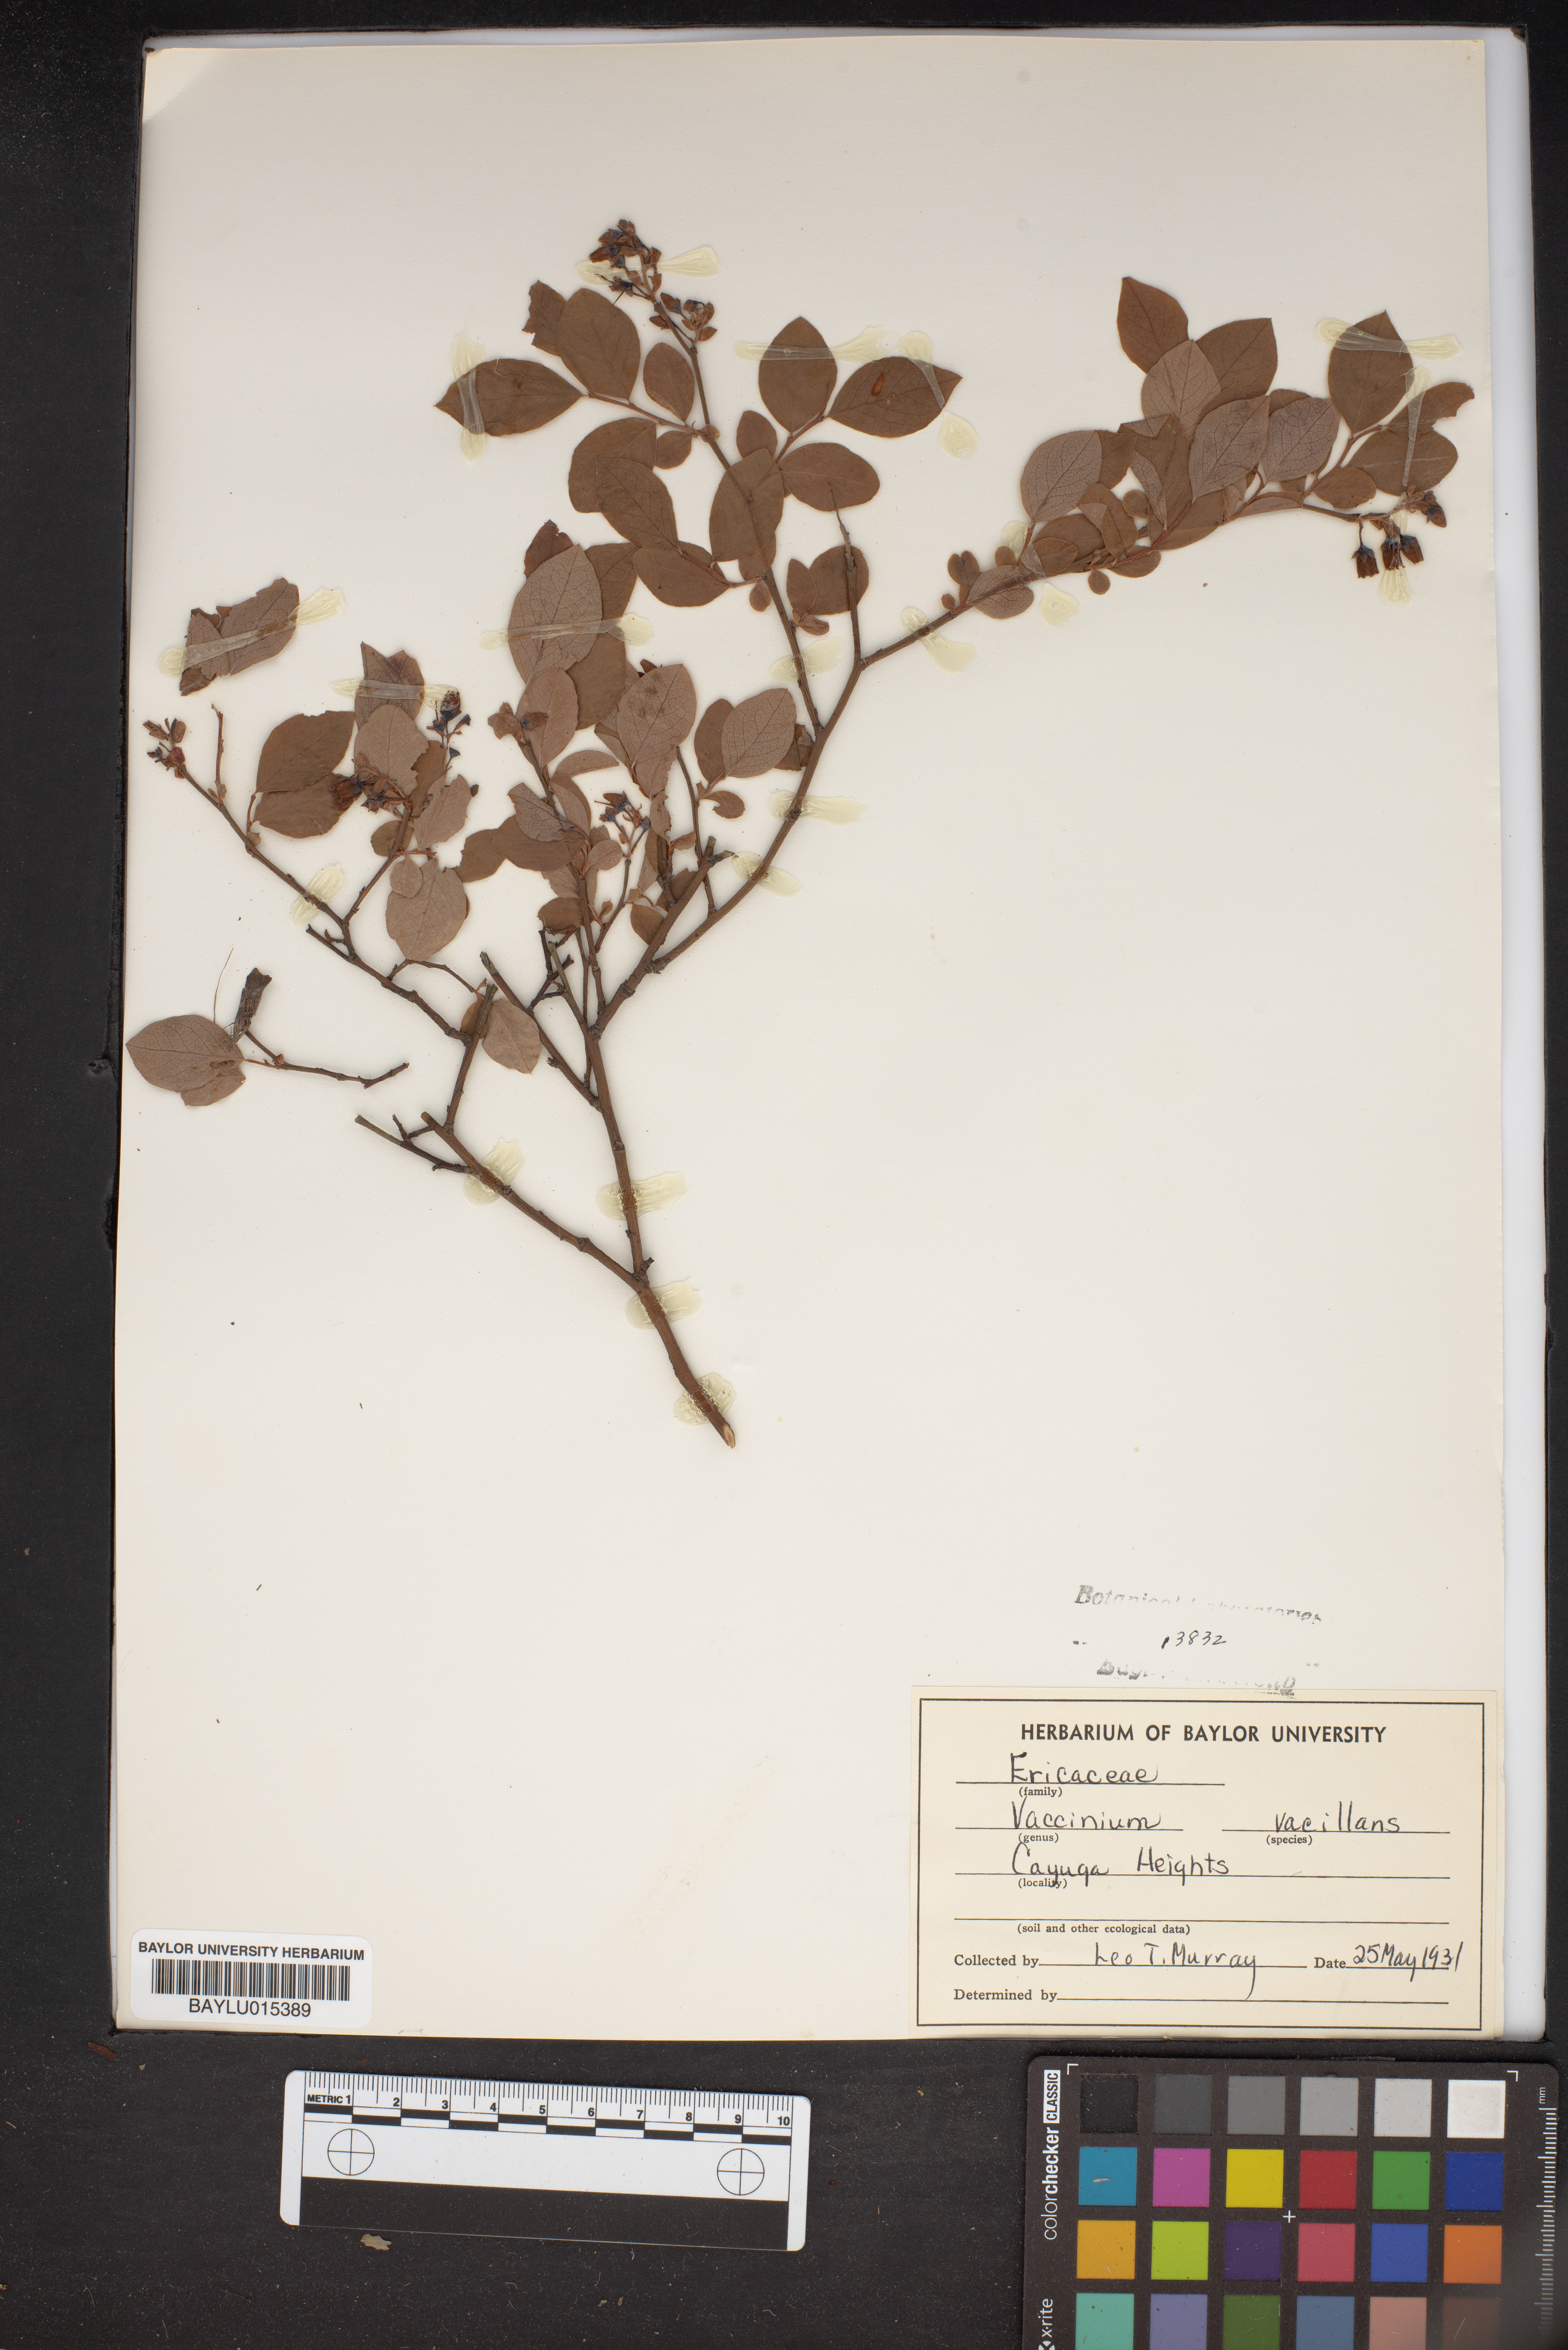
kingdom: Plantae
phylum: Tracheophyta
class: Magnoliopsida
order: Ericales
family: Ericaceae
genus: Vaccinium
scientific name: Vaccinium pallidum
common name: Blue ridge blueberry
